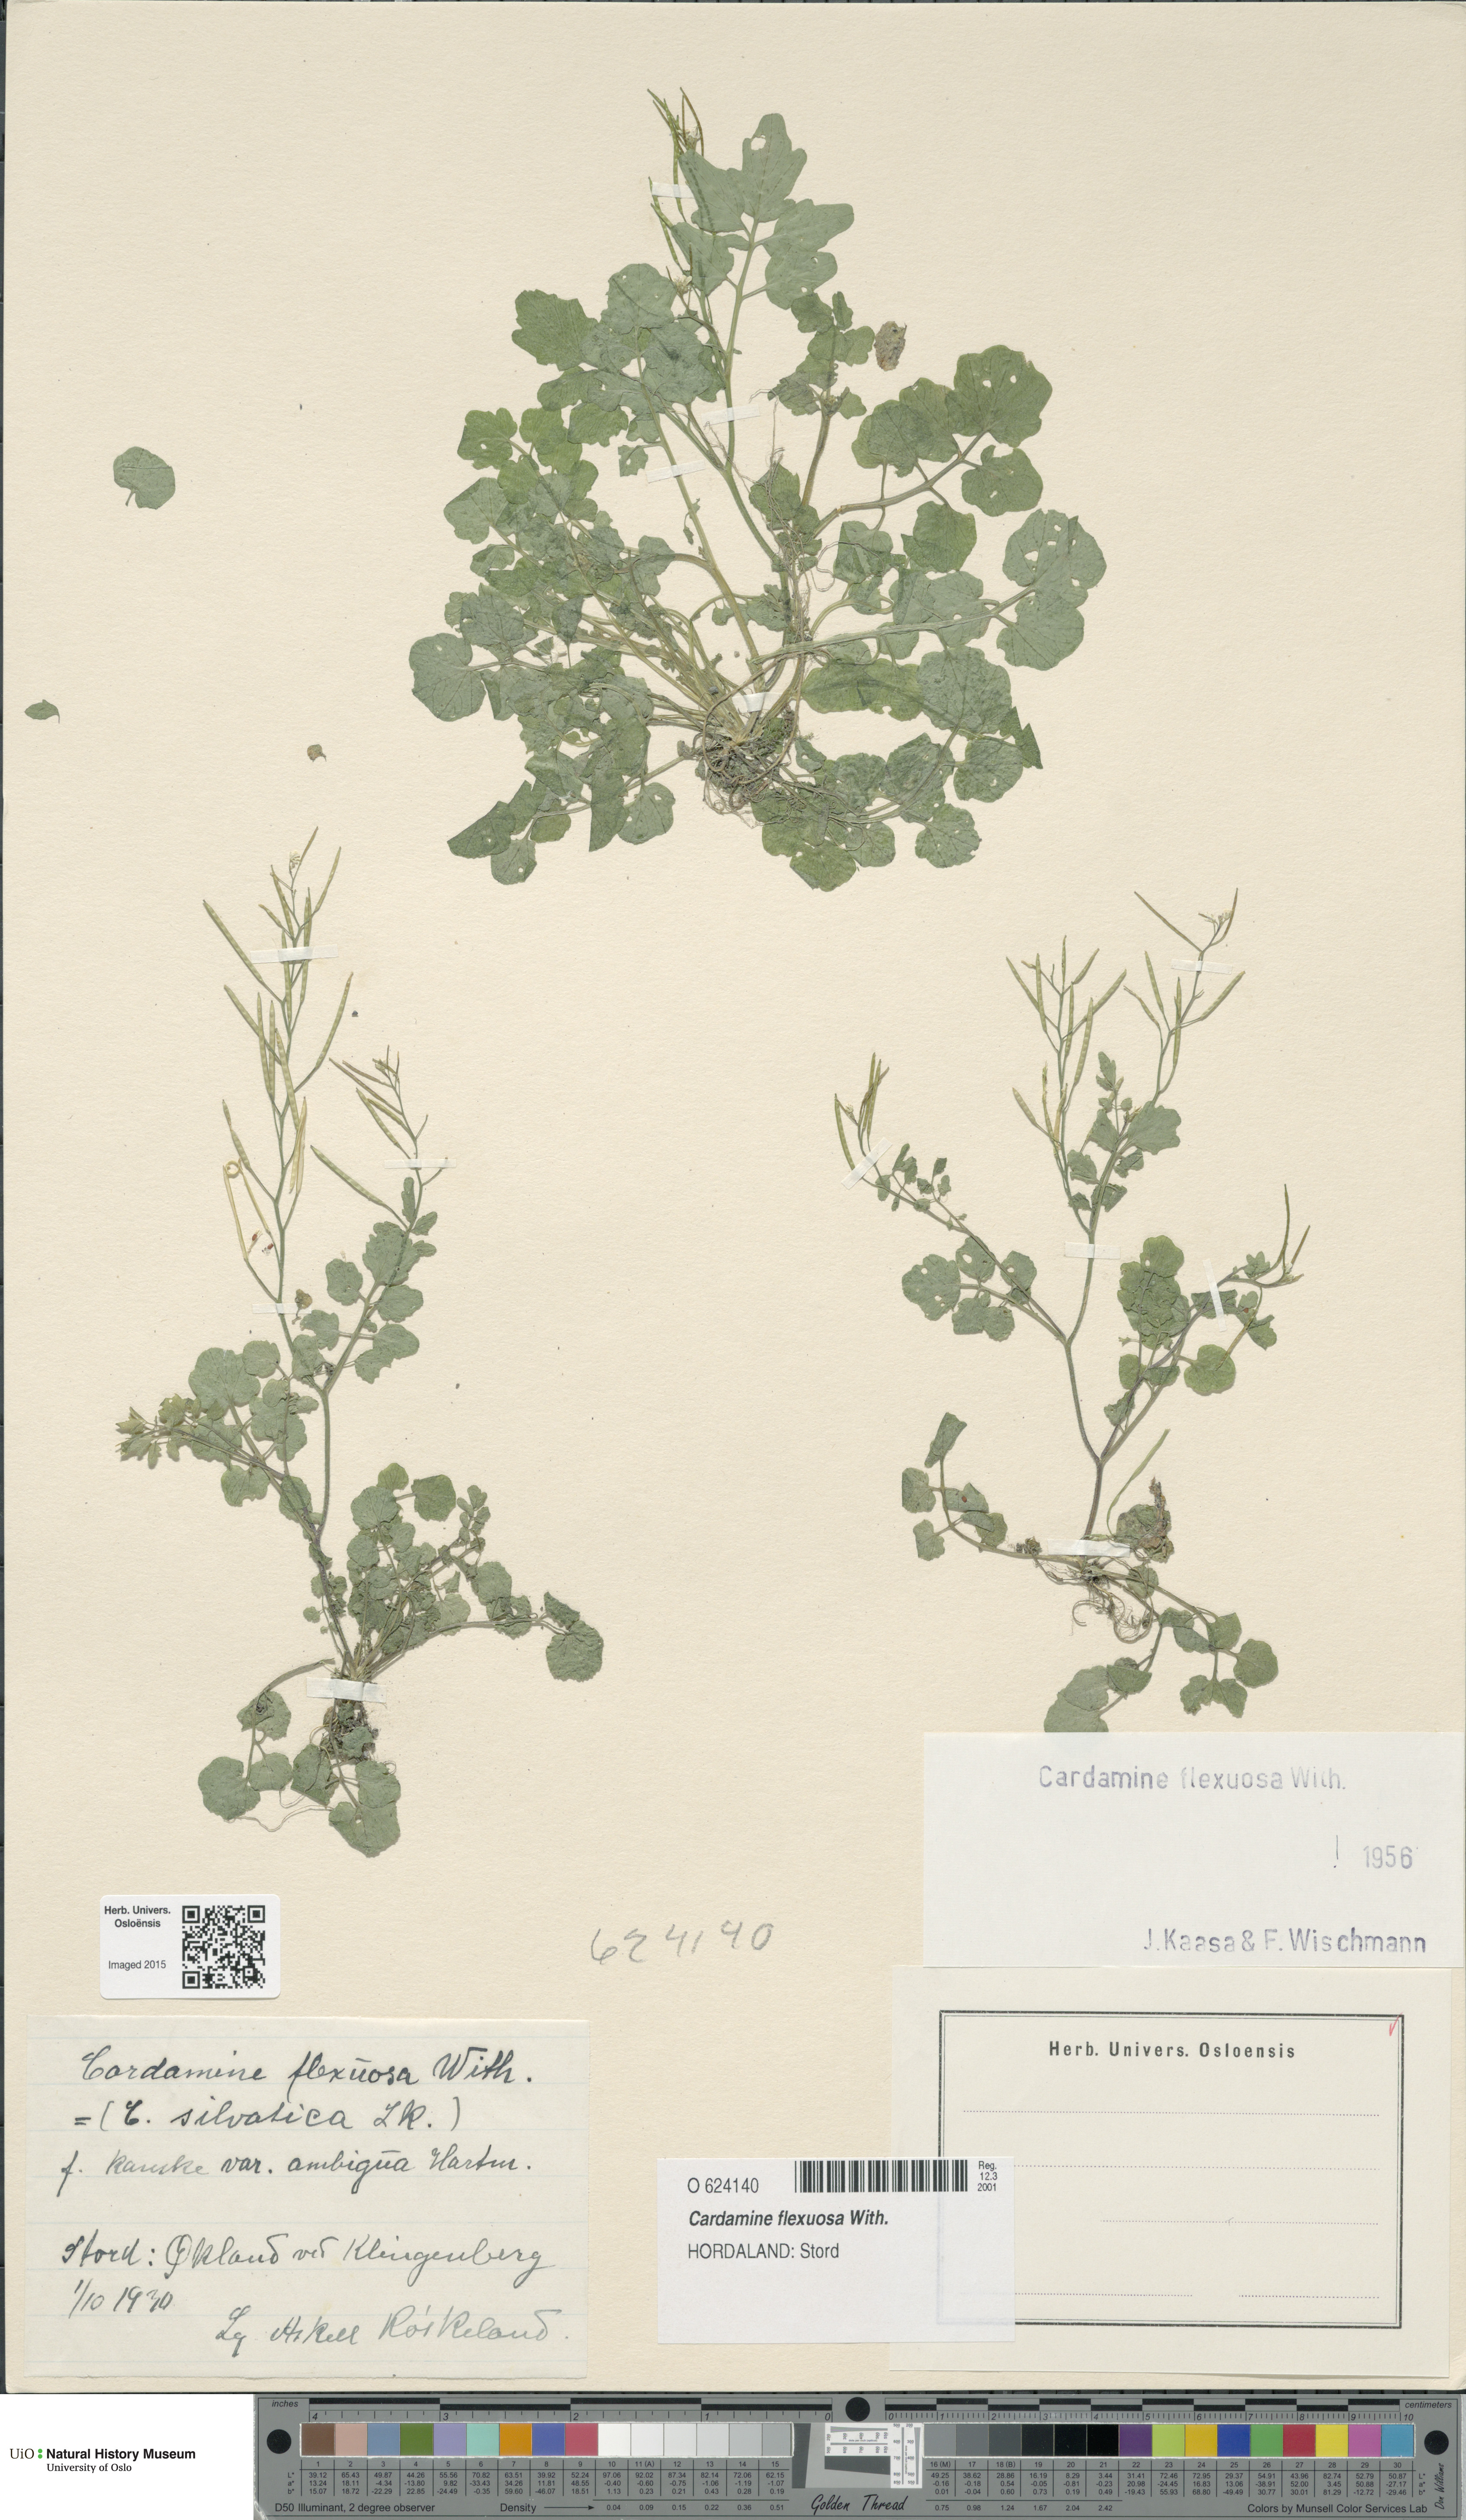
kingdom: Plantae
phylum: Tracheophyta
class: Magnoliopsida
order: Brassicales
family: Brassicaceae
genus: Cardamine
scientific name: Cardamine flexuosa
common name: Woodland bittercress
